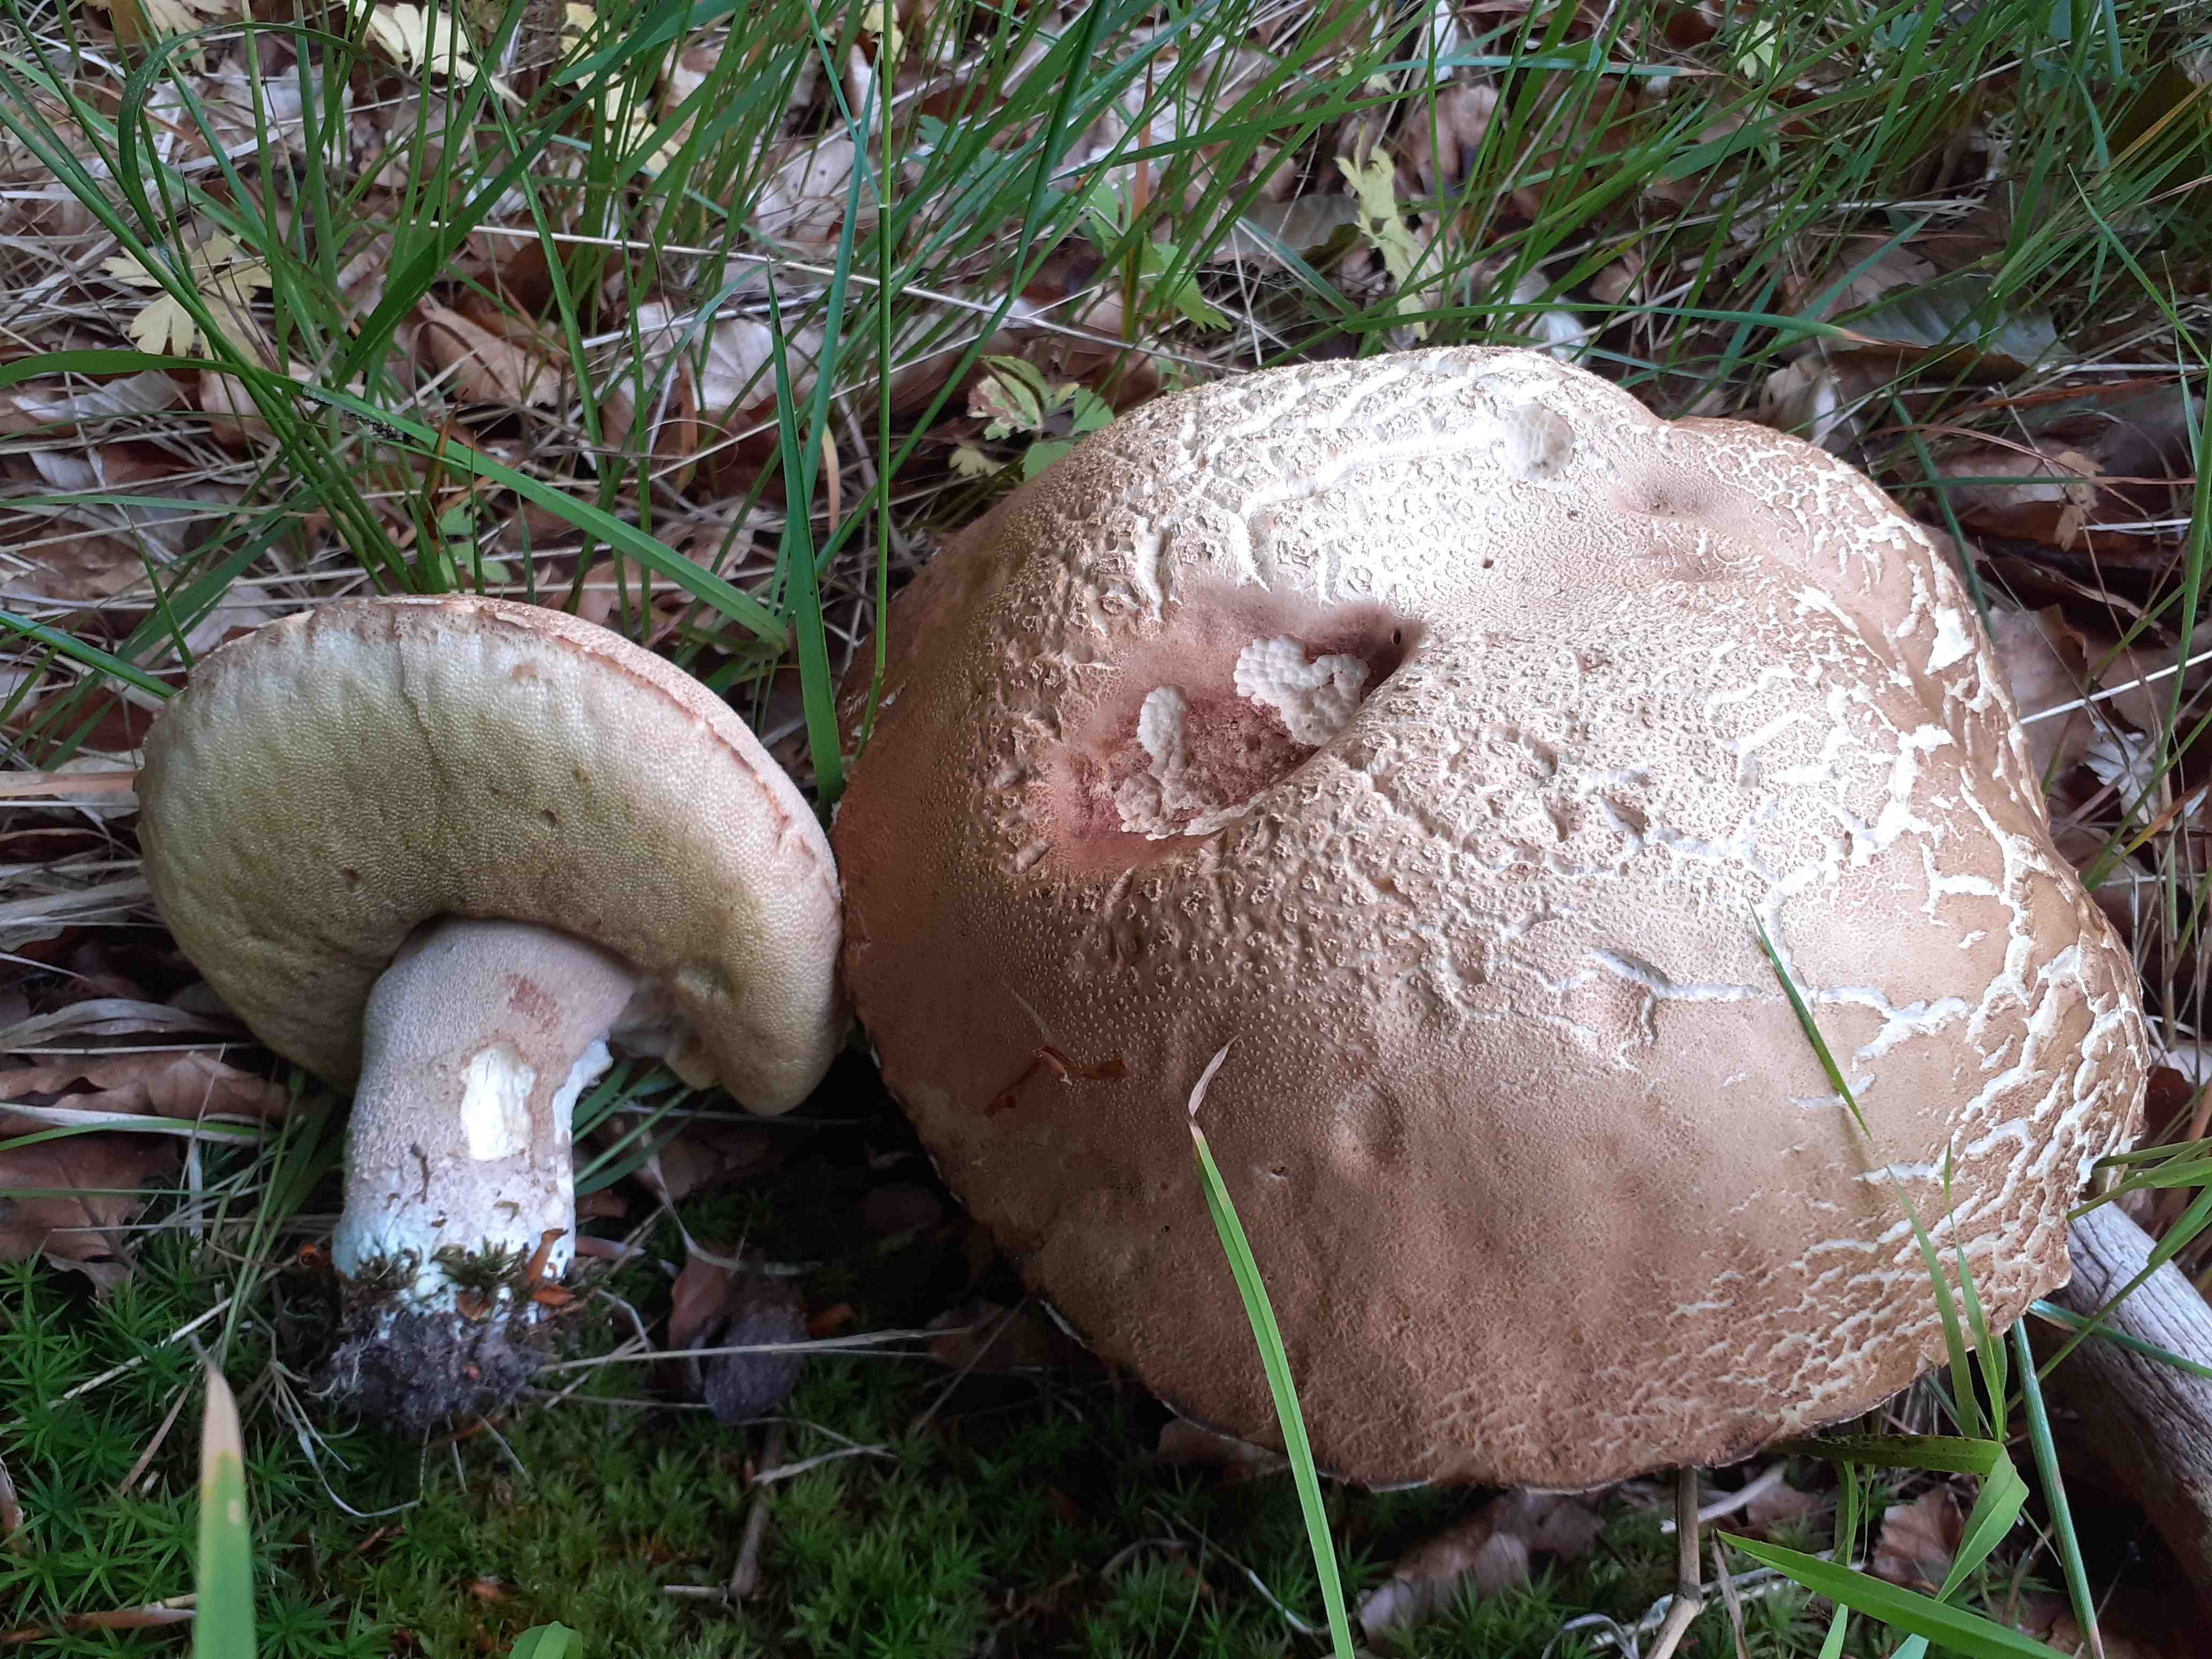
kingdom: Fungi
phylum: Basidiomycota
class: Agaricomycetes
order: Boletales
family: Boletaceae
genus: Boletus
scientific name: Boletus reticulatus
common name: sommer-rørhat
